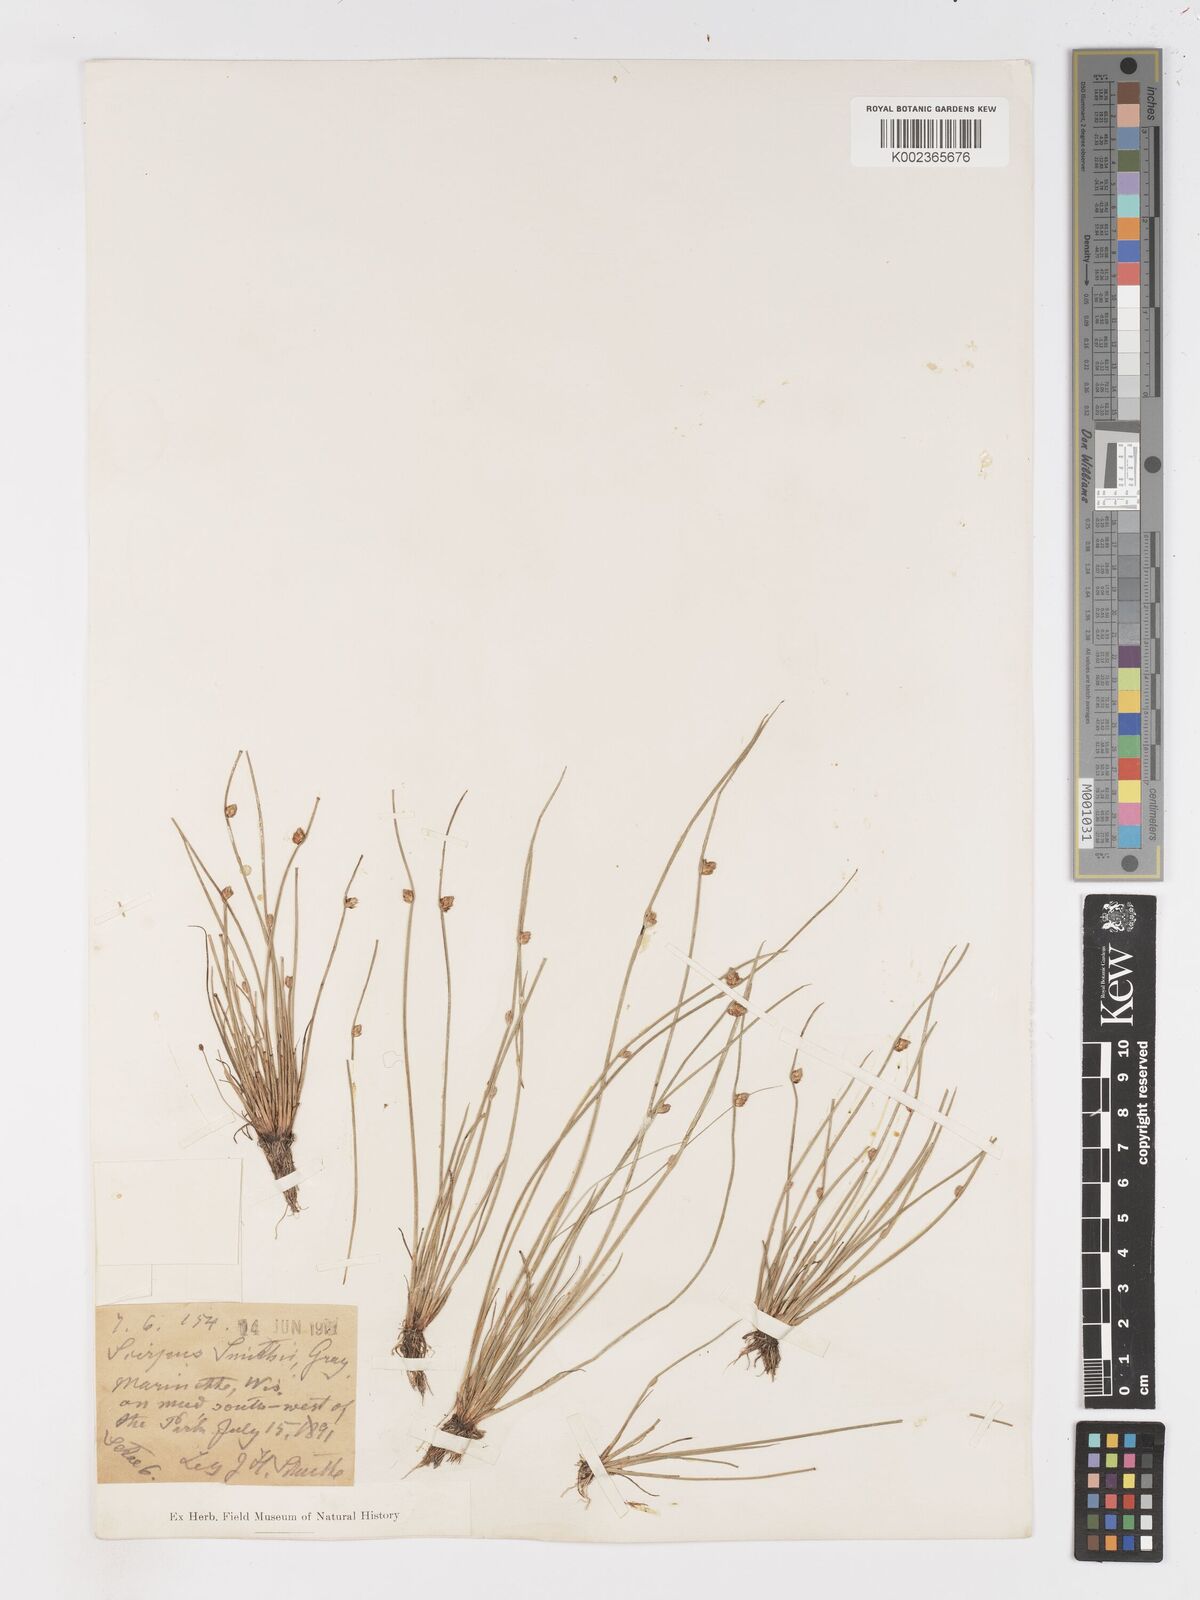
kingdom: Plantae
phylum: Tracheophyta
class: Liliopsida
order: Poales
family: Cyperaceae
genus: Schoenoplectiella
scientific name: Schoenoplectiella purshiana
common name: Weak-stalked bulrush
